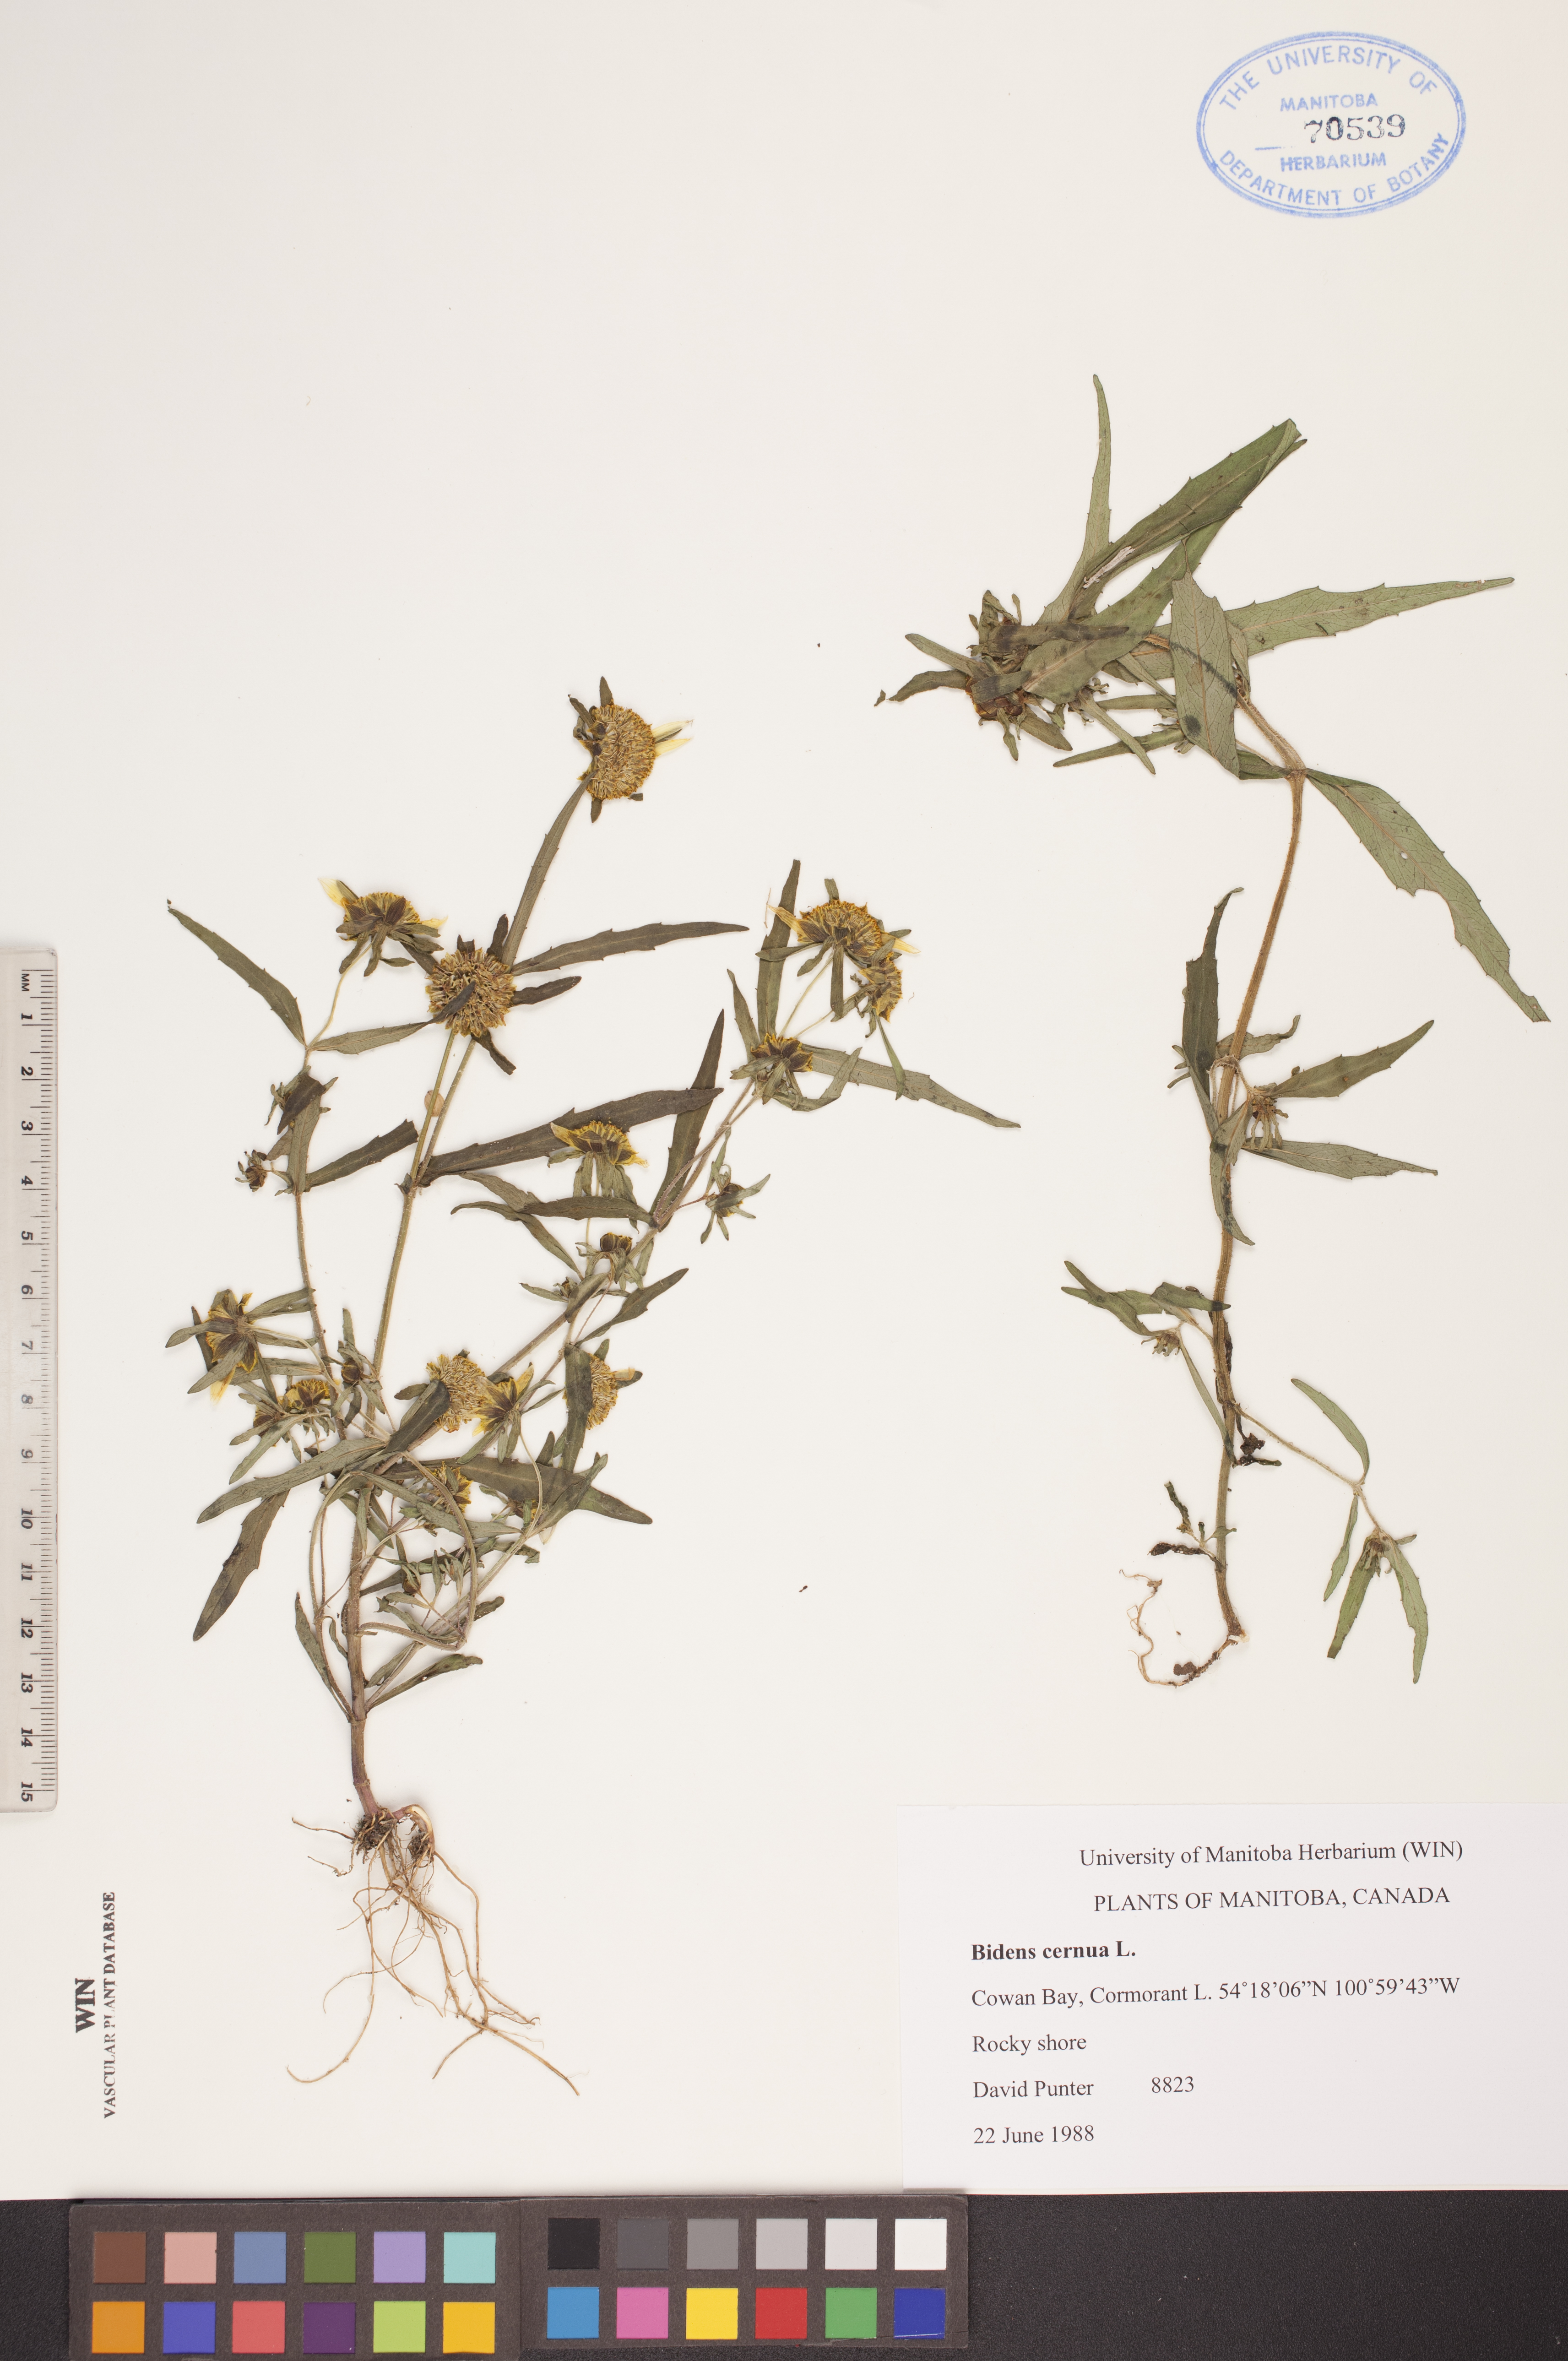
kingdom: Plantae
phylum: Tracheophyta
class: Magnoliopsida
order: Asterales
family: Asteraceae
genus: Bidens
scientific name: Bidens cernua
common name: Nodding bur-marigold
